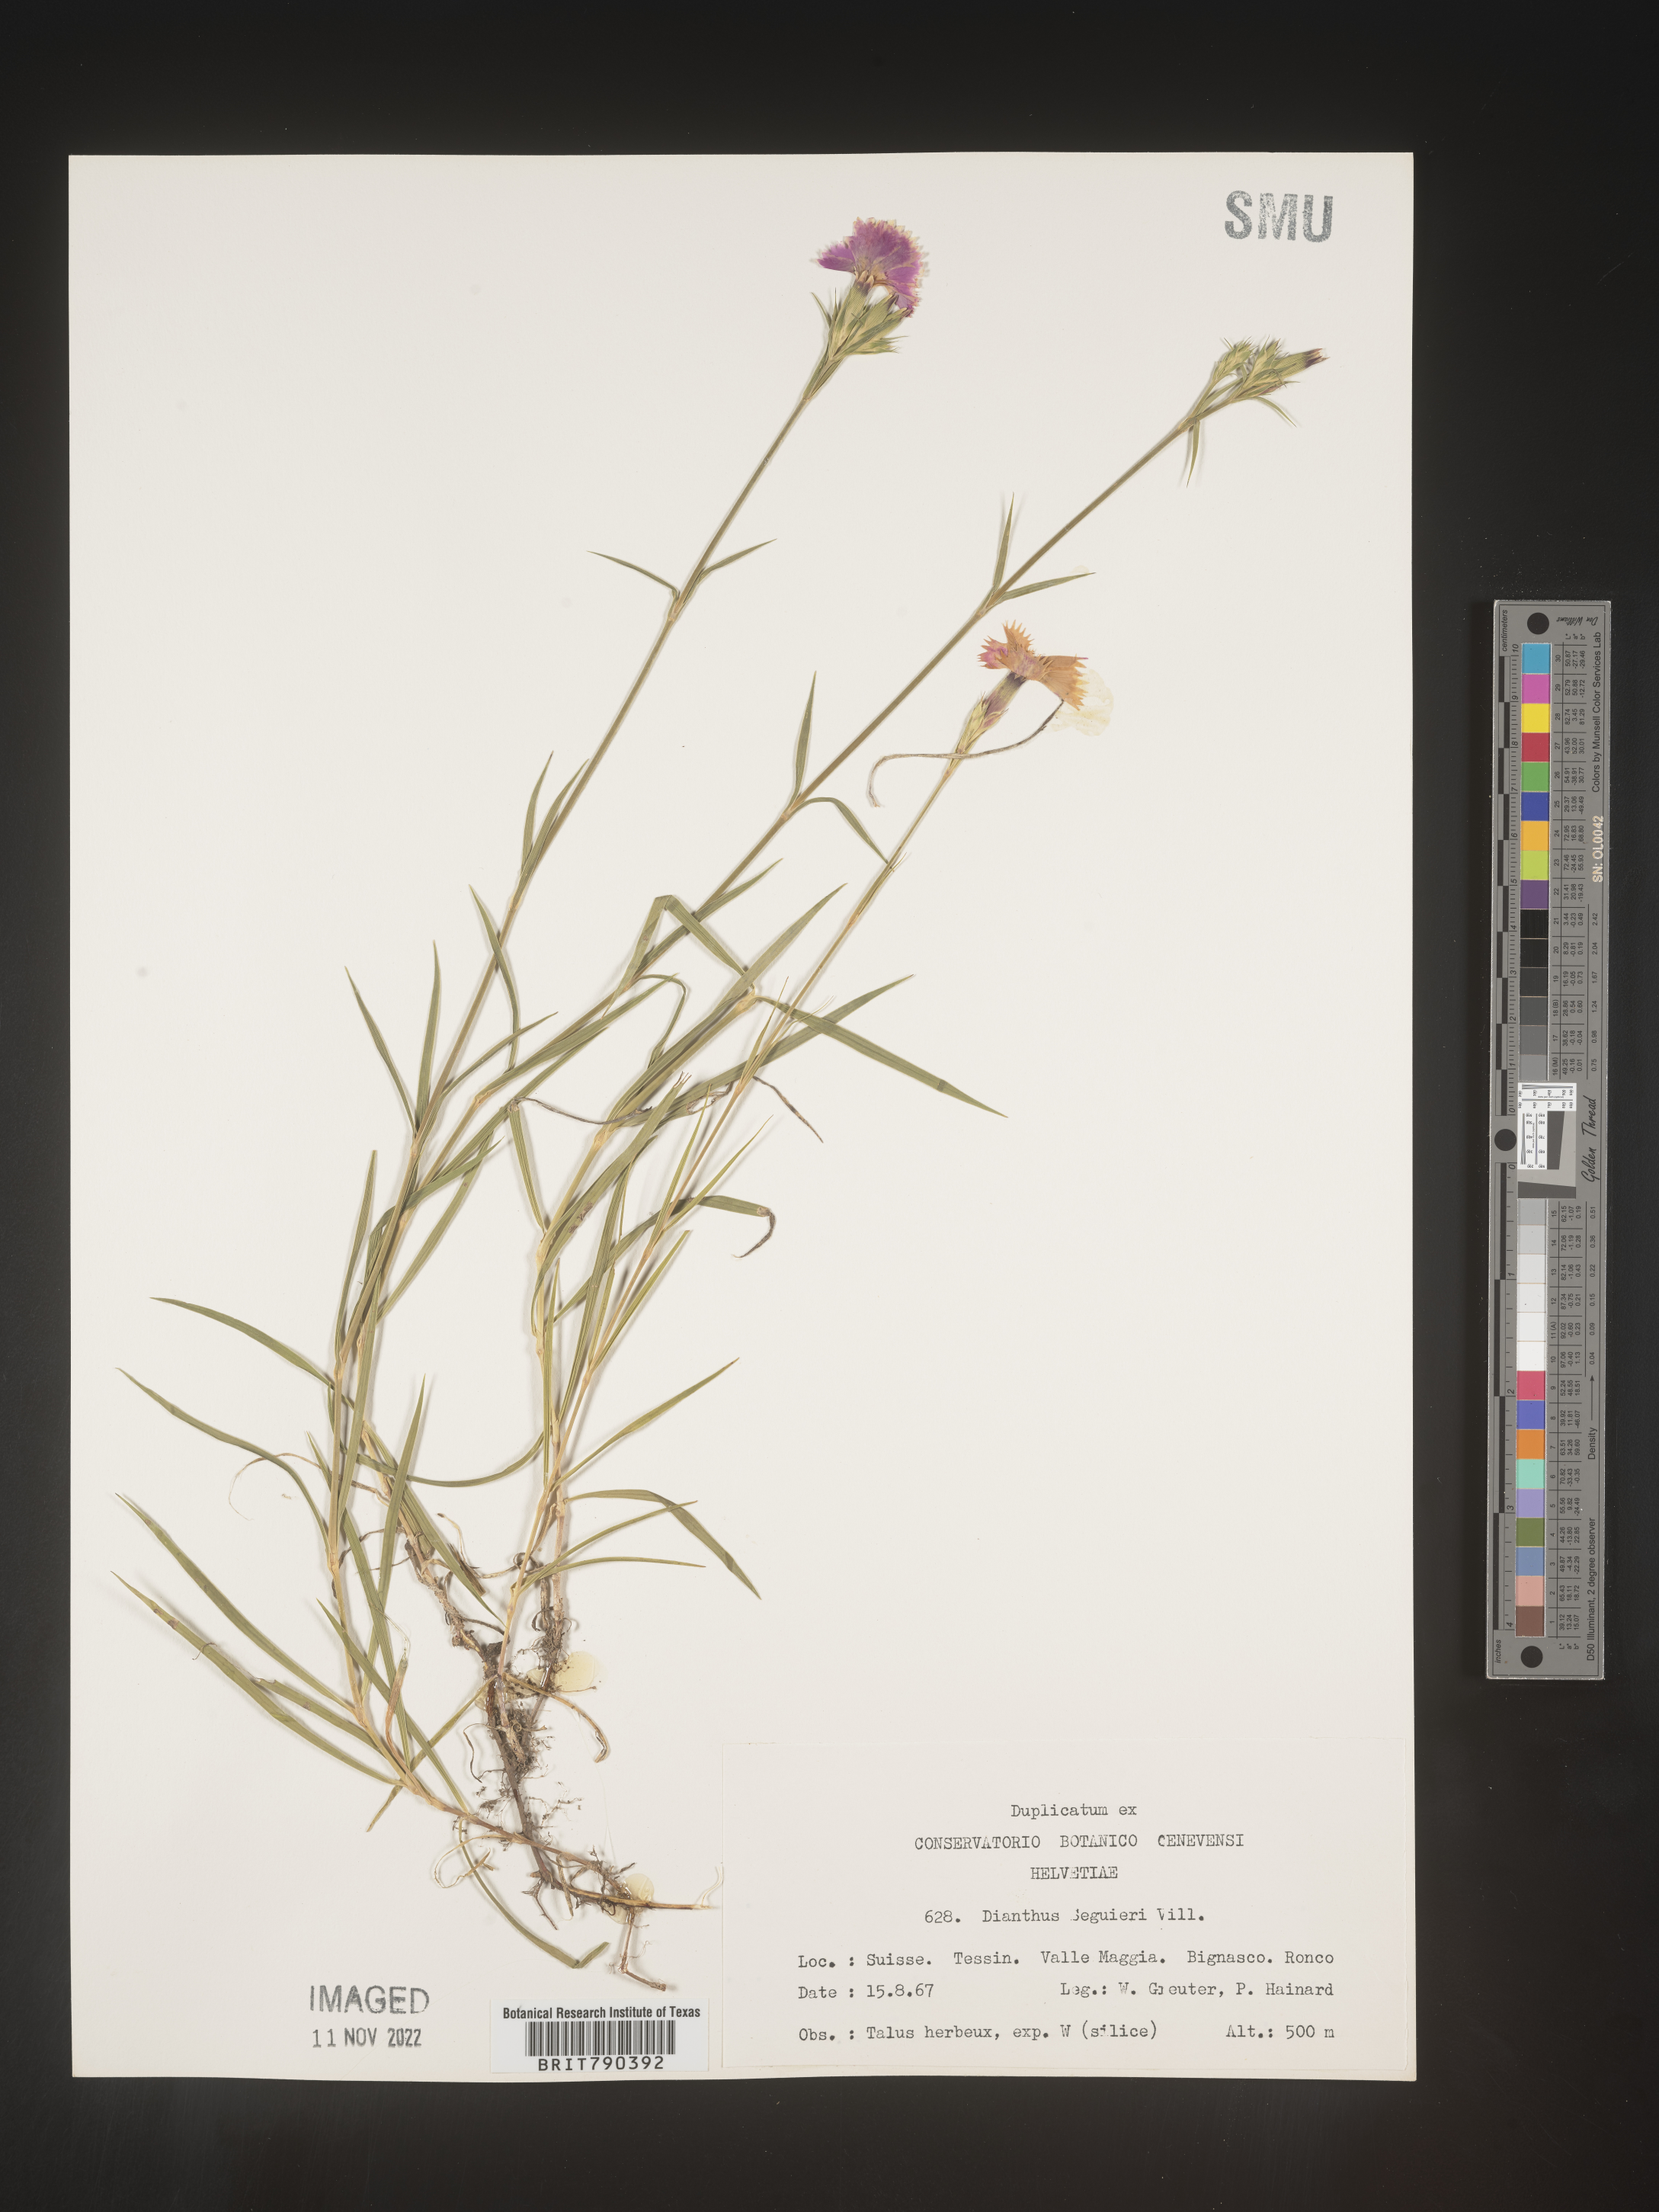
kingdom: Plantae
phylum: Tracheophyta
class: Magnoliopsida
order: Caryophyllales
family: Caryophyllaceae
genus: Dianthus
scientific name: Dianthus
